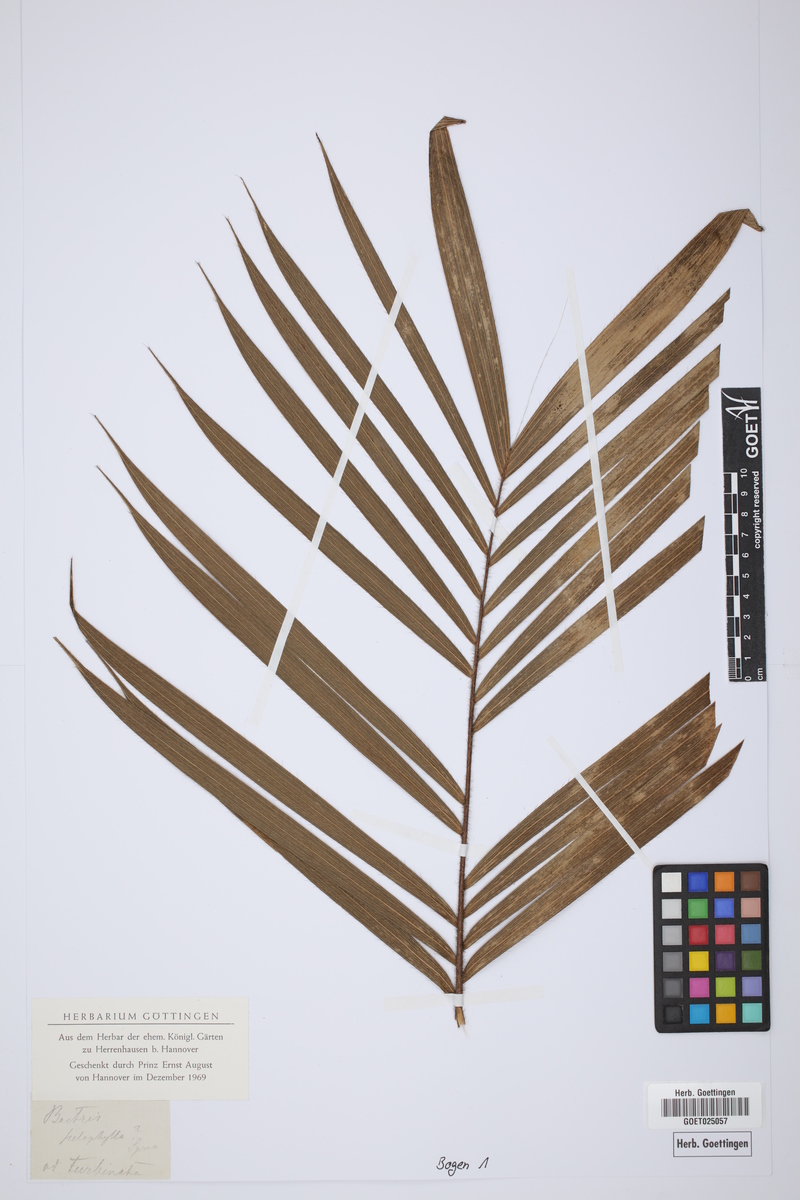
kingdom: Plantae
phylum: Tracheophyta
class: Liliopsida
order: Arecales
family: Arecaceae
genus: Bactris
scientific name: Bactris hirta
